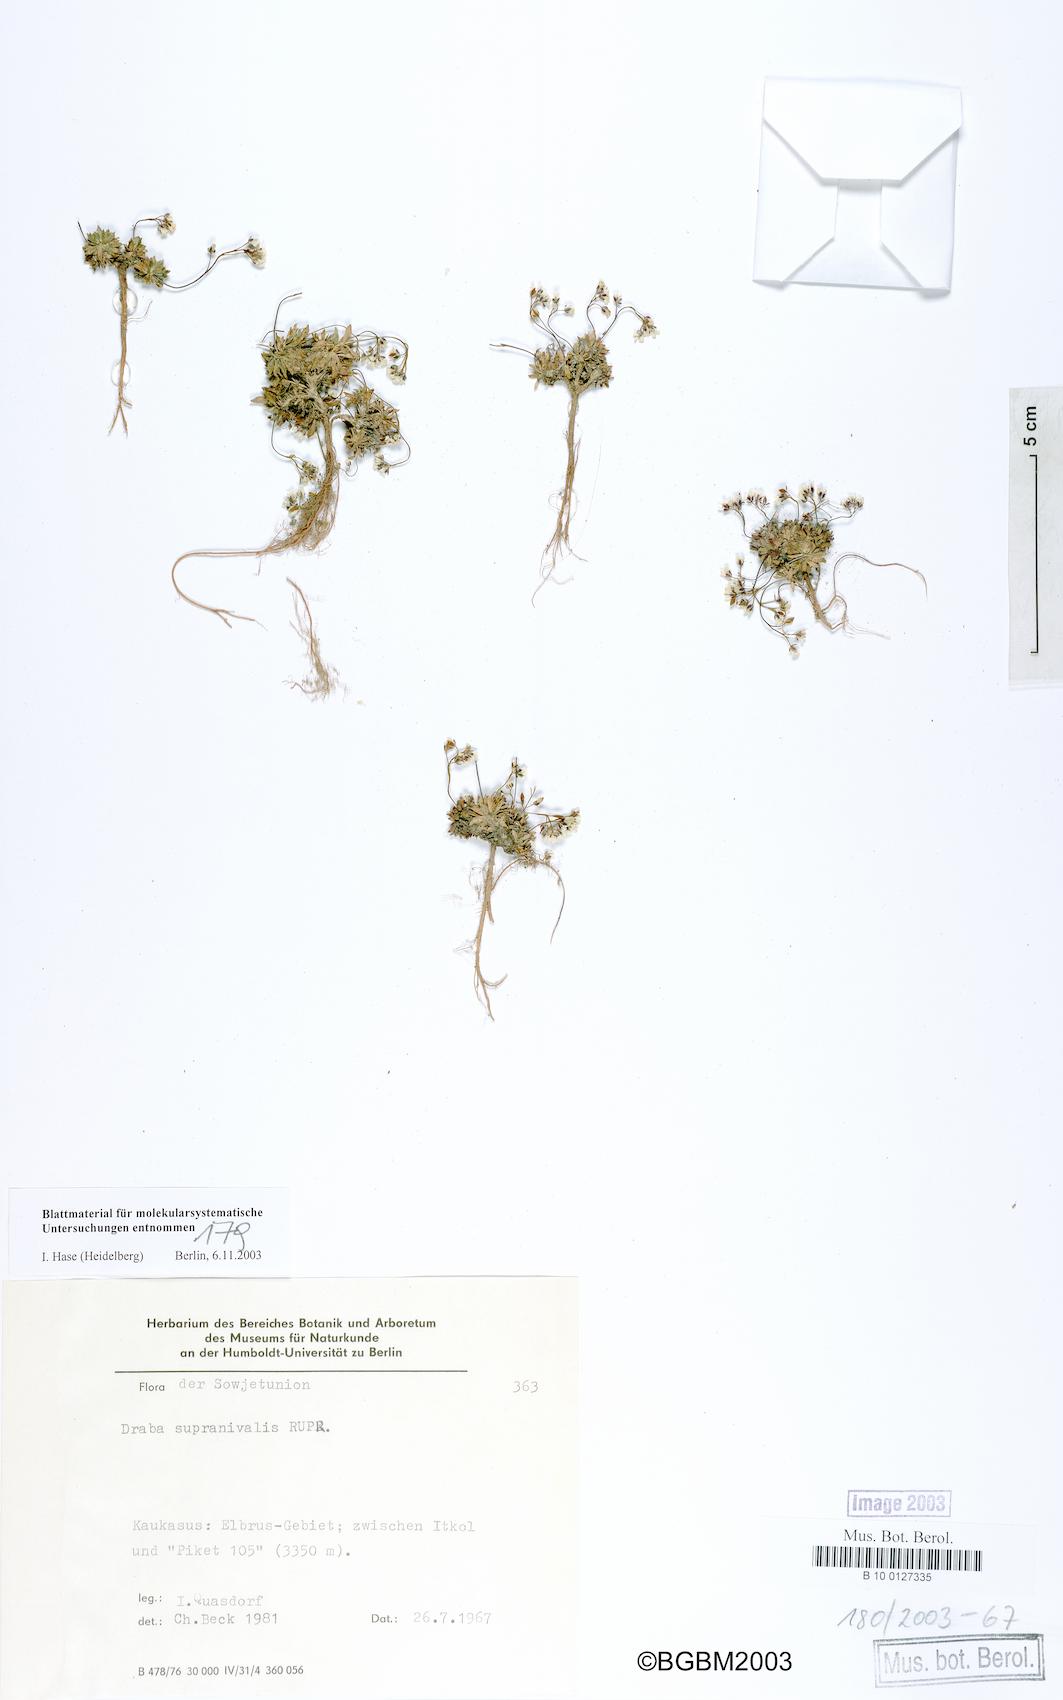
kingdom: Plantae
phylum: Tracheophyta
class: Magnoliopsida
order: Brassicales
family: Brassicaceae
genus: Draba
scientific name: Draba supranivalis
